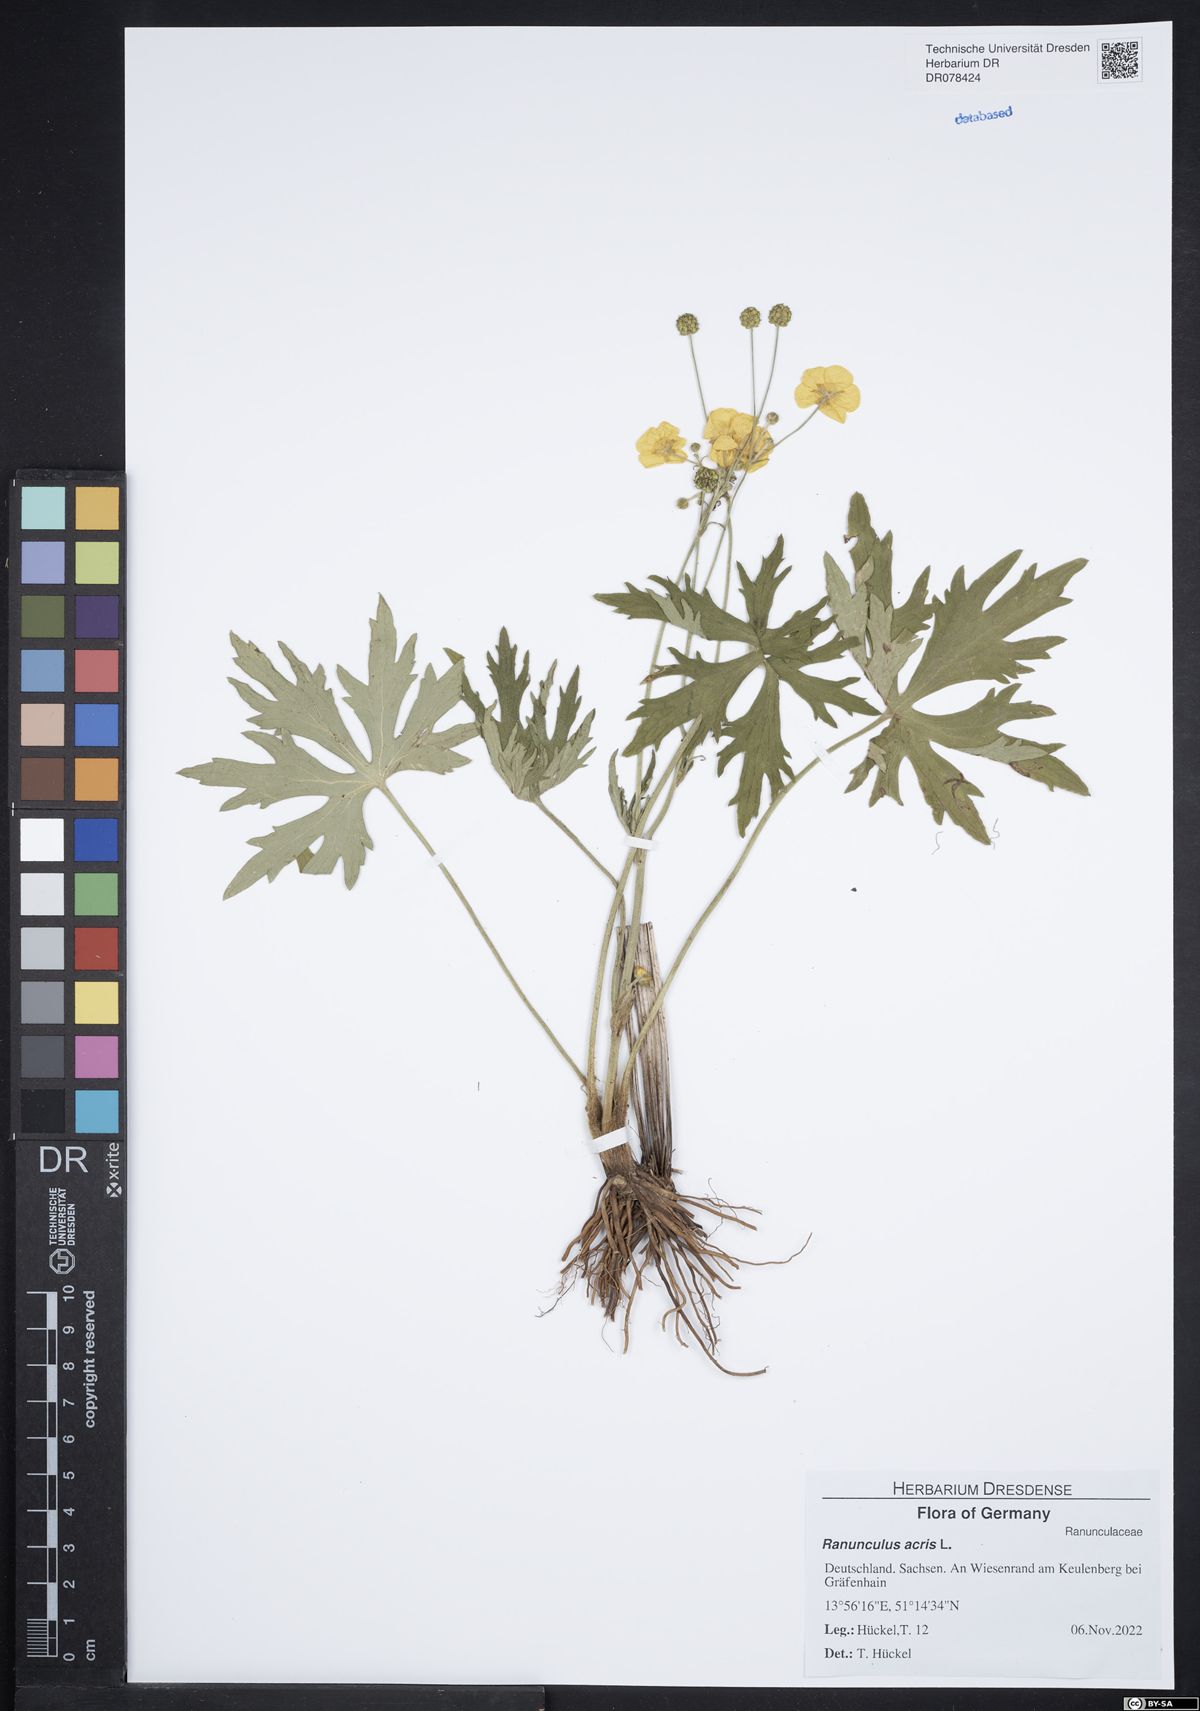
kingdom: Plantae
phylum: Tracheophyta
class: Magnoliopsida
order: Ranunculales
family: Ranunculaceae
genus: Ranunculus
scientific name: Ranunculus acris
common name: Meadow buttercup
